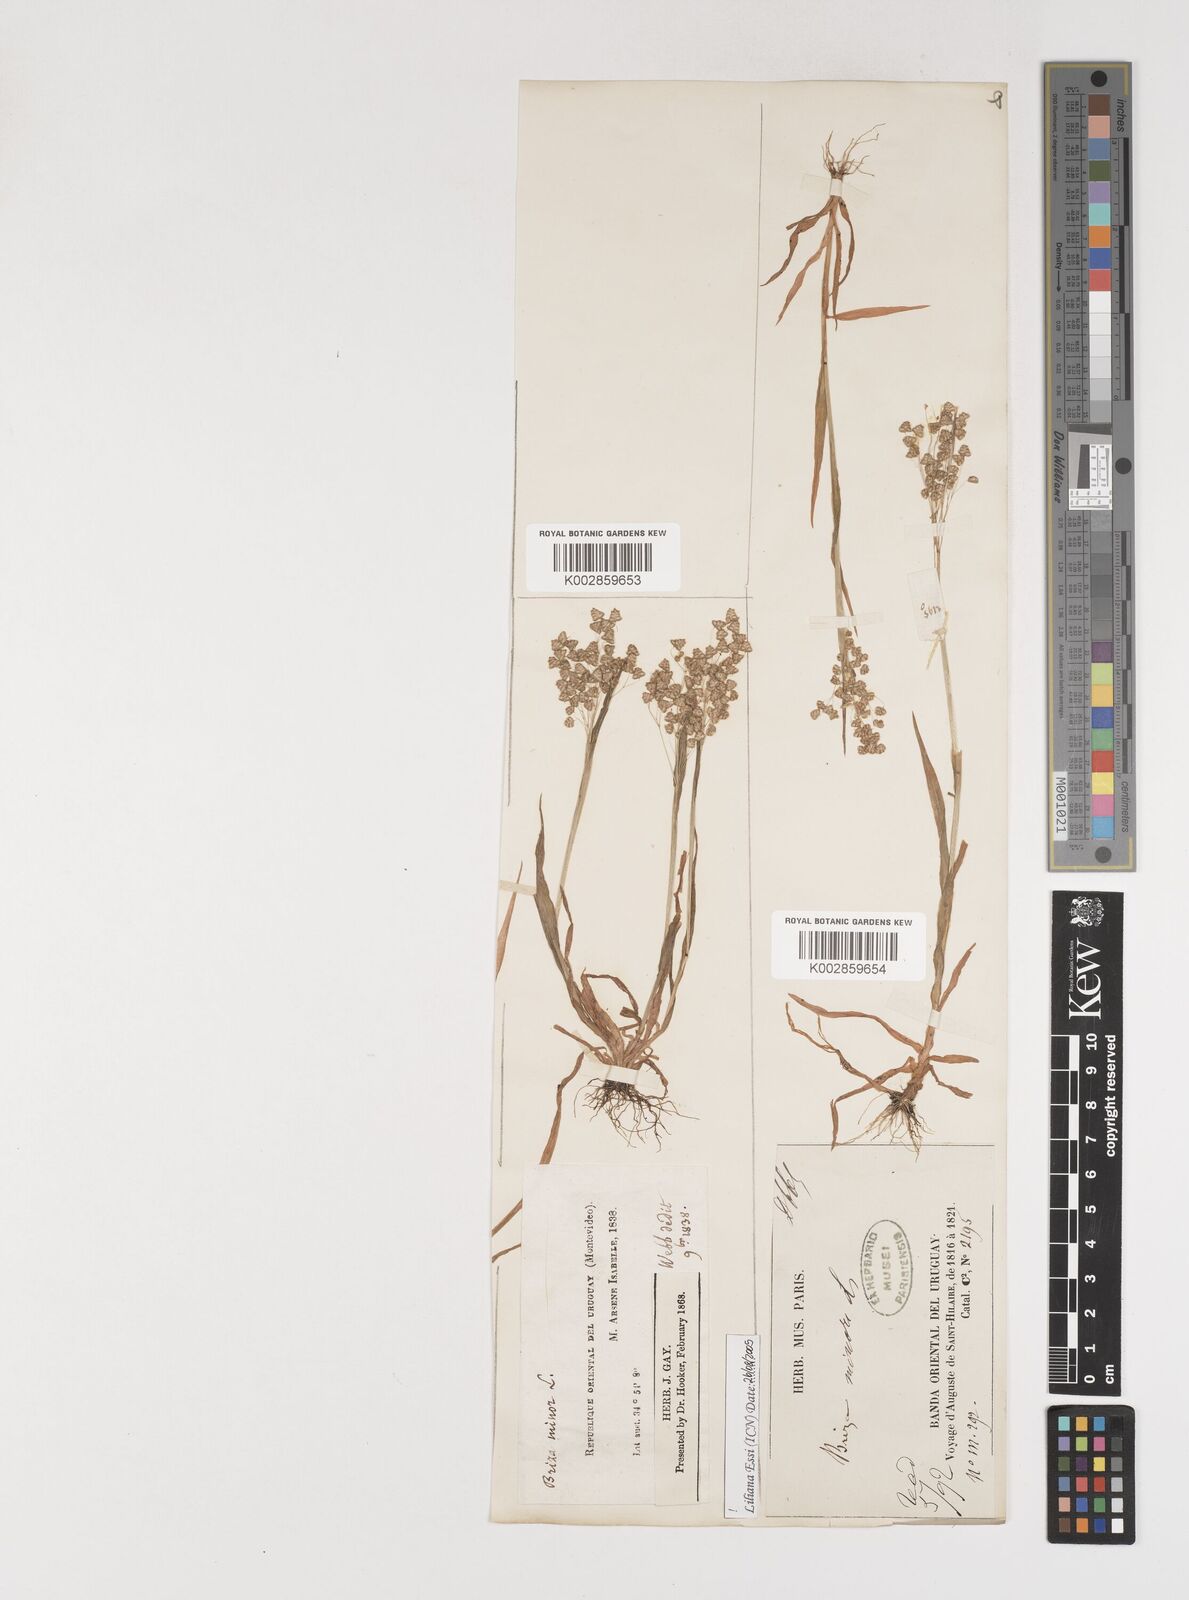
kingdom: Plantae
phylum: Tracheophyta
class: Liliopsida
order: Poales
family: Poaceae
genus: Briza
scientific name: Briza minor
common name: Lesser quaking-grass
